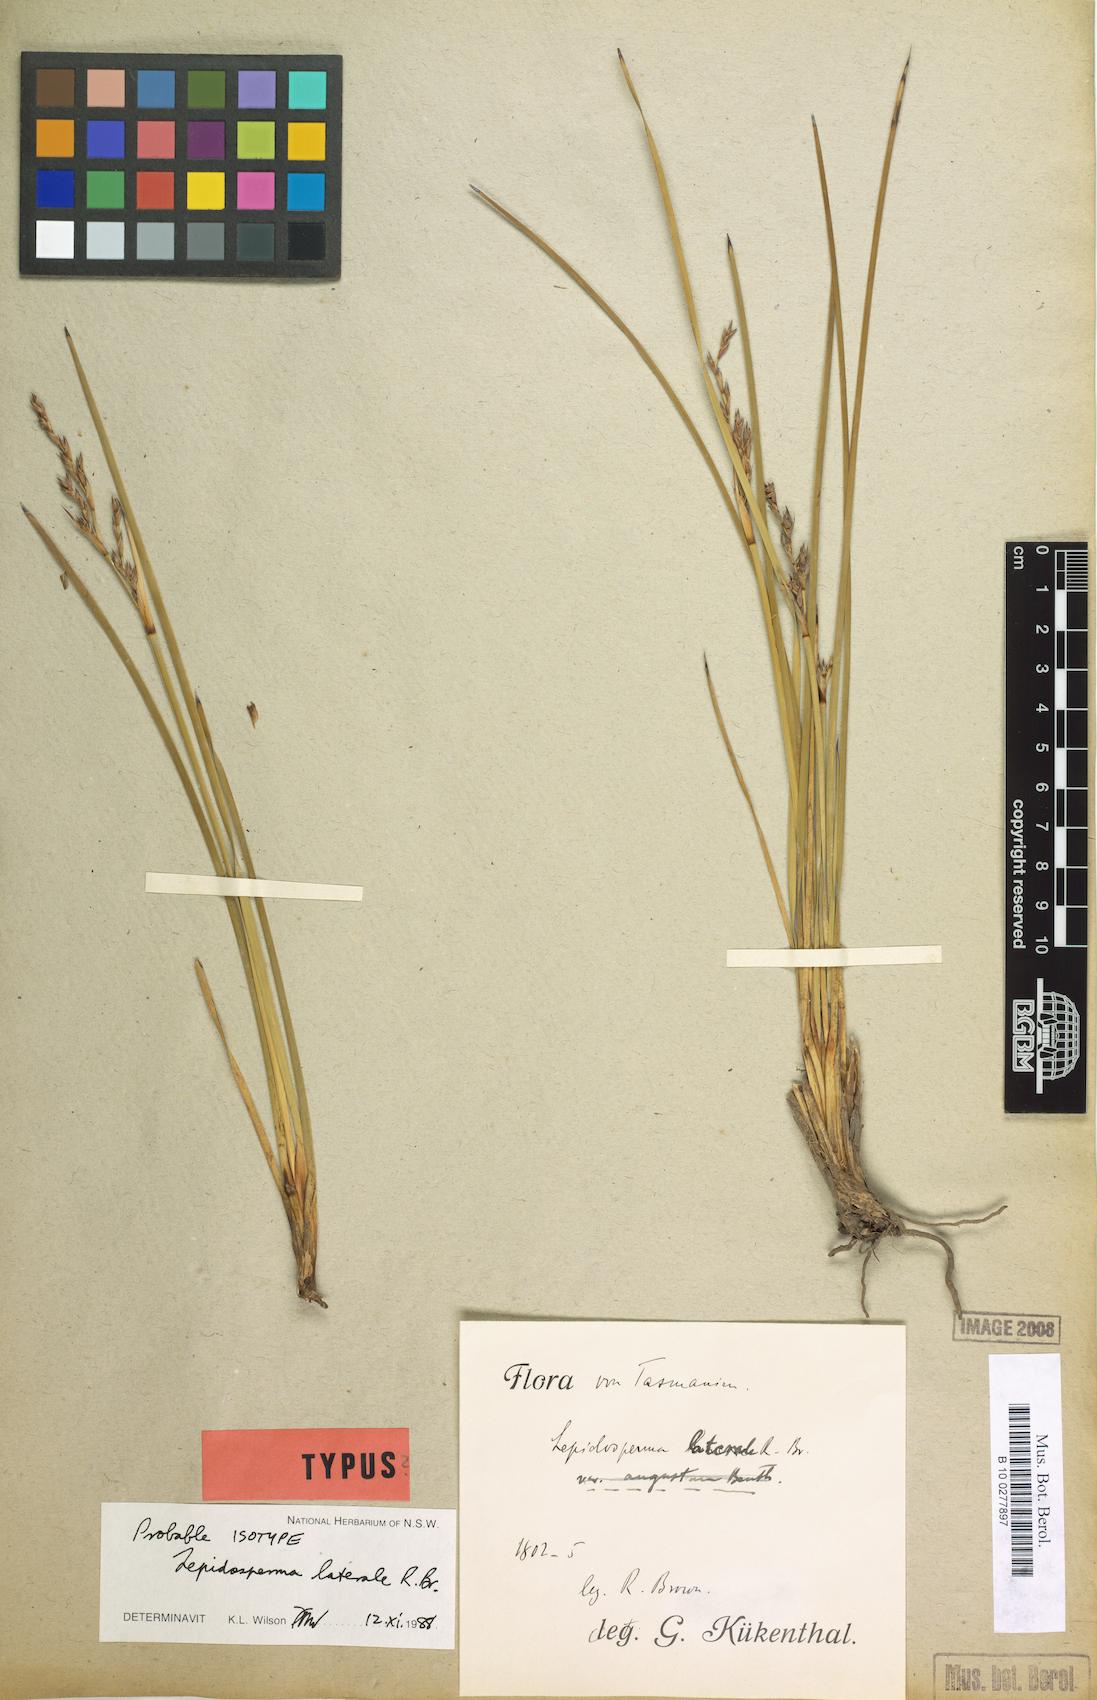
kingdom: Plantae
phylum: Tracheophyta
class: Liliopsida
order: Poales
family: Cyperaceae
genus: Lepidosperma
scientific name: Lepidosperma laterale
